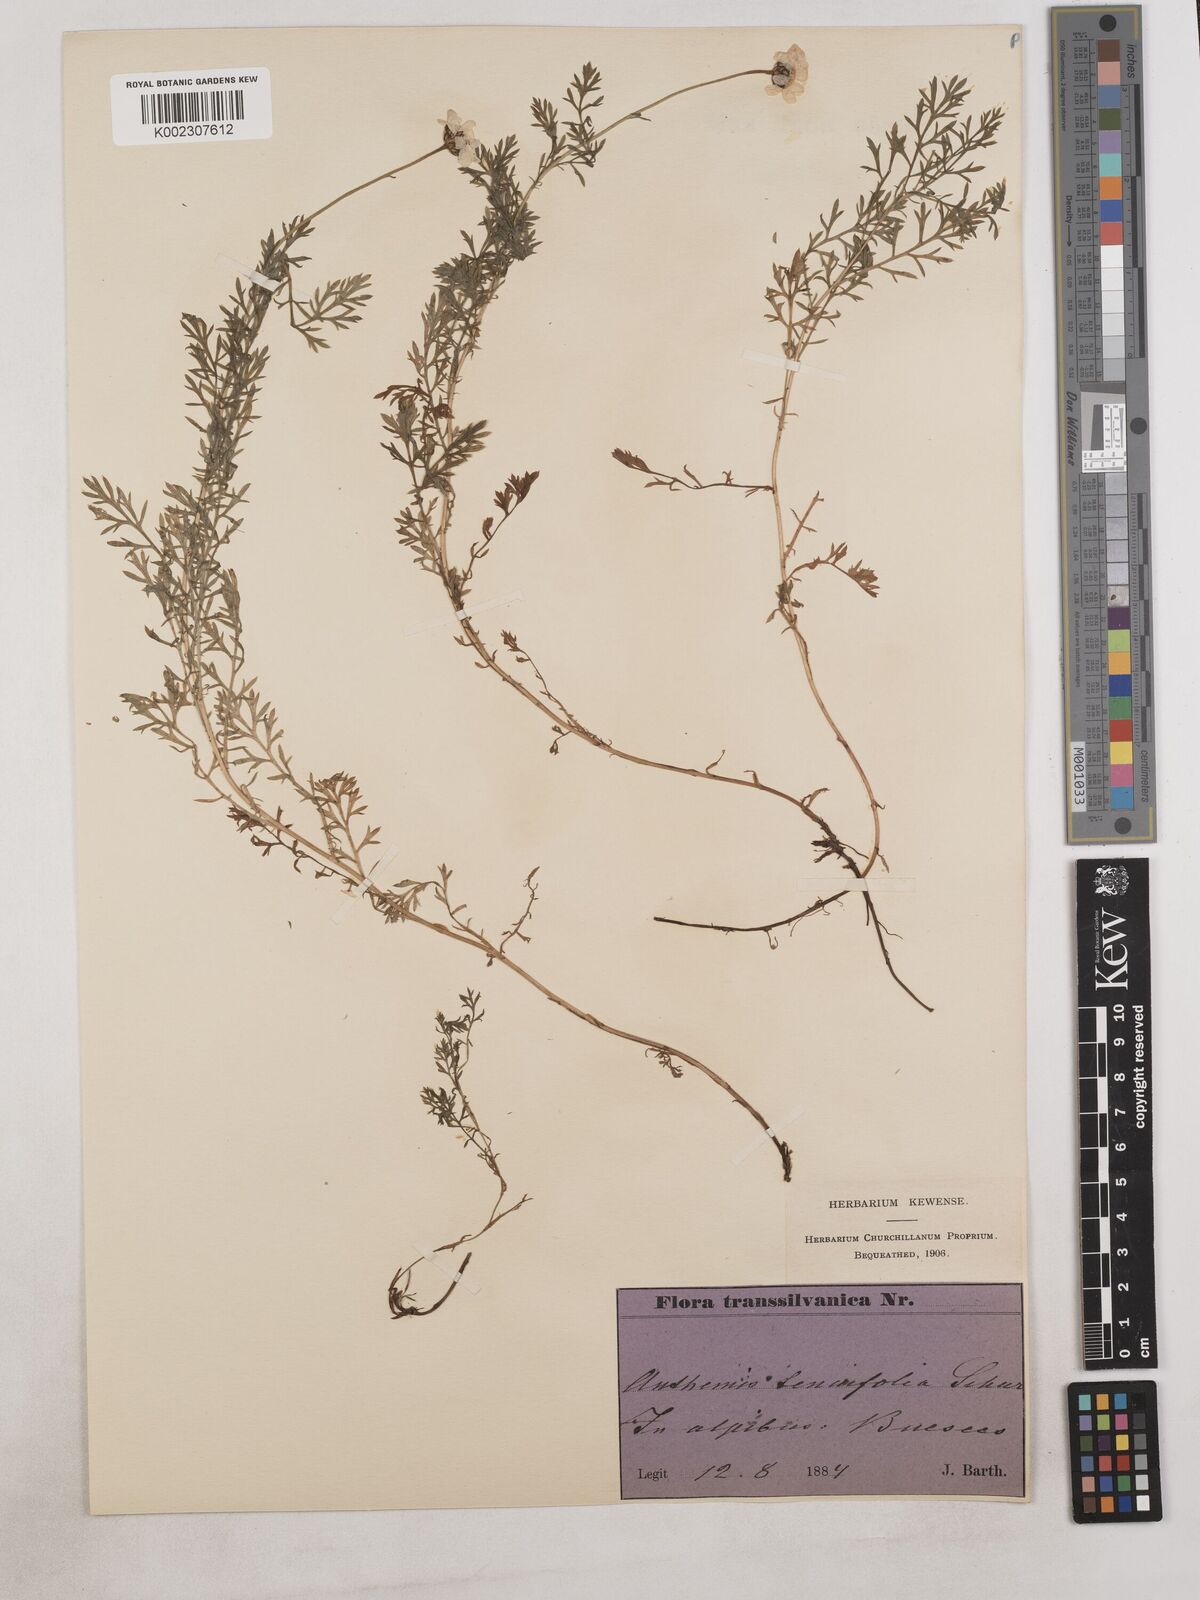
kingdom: Plantae
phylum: Tracheophyta
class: Magnoliopsida
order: Asterales
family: Asteraceae
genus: Achillea
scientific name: Achillea millefolium
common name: Yarrow
